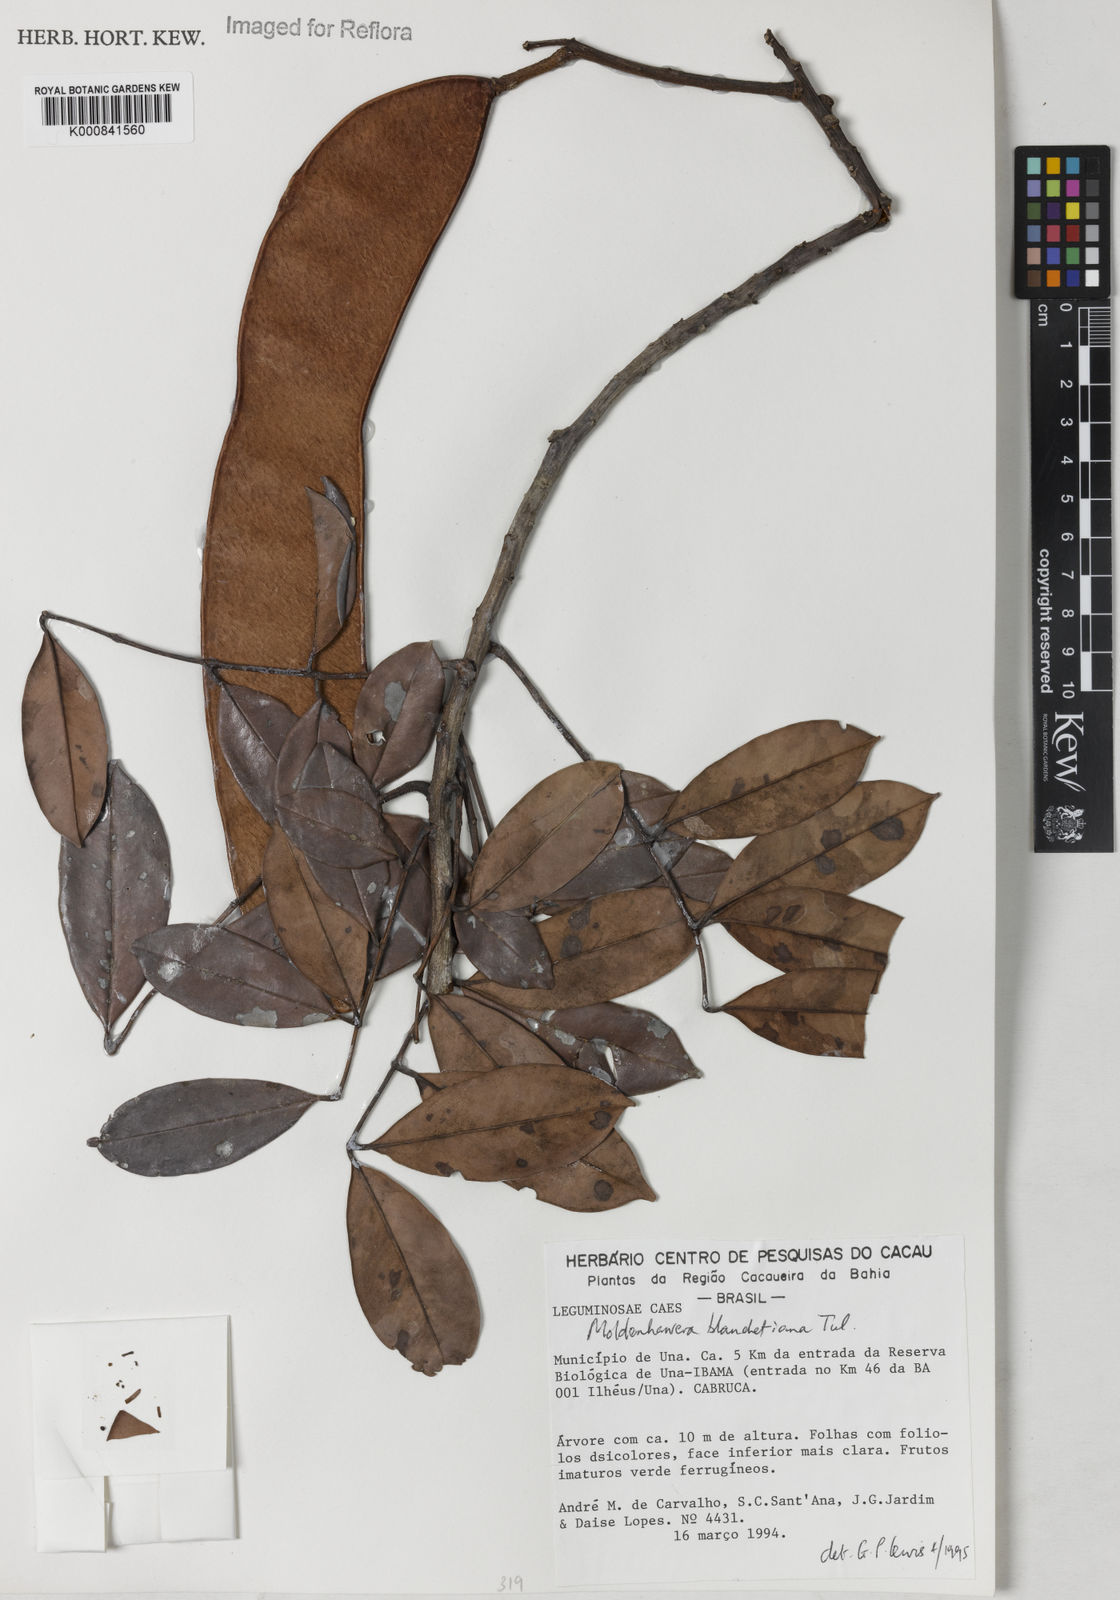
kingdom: Plantae
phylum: Tracheophyta
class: Magnoliopsida
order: Fabales
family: Fabaceae
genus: Moldenhawera
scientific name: Moldenhawera blanchetiana
